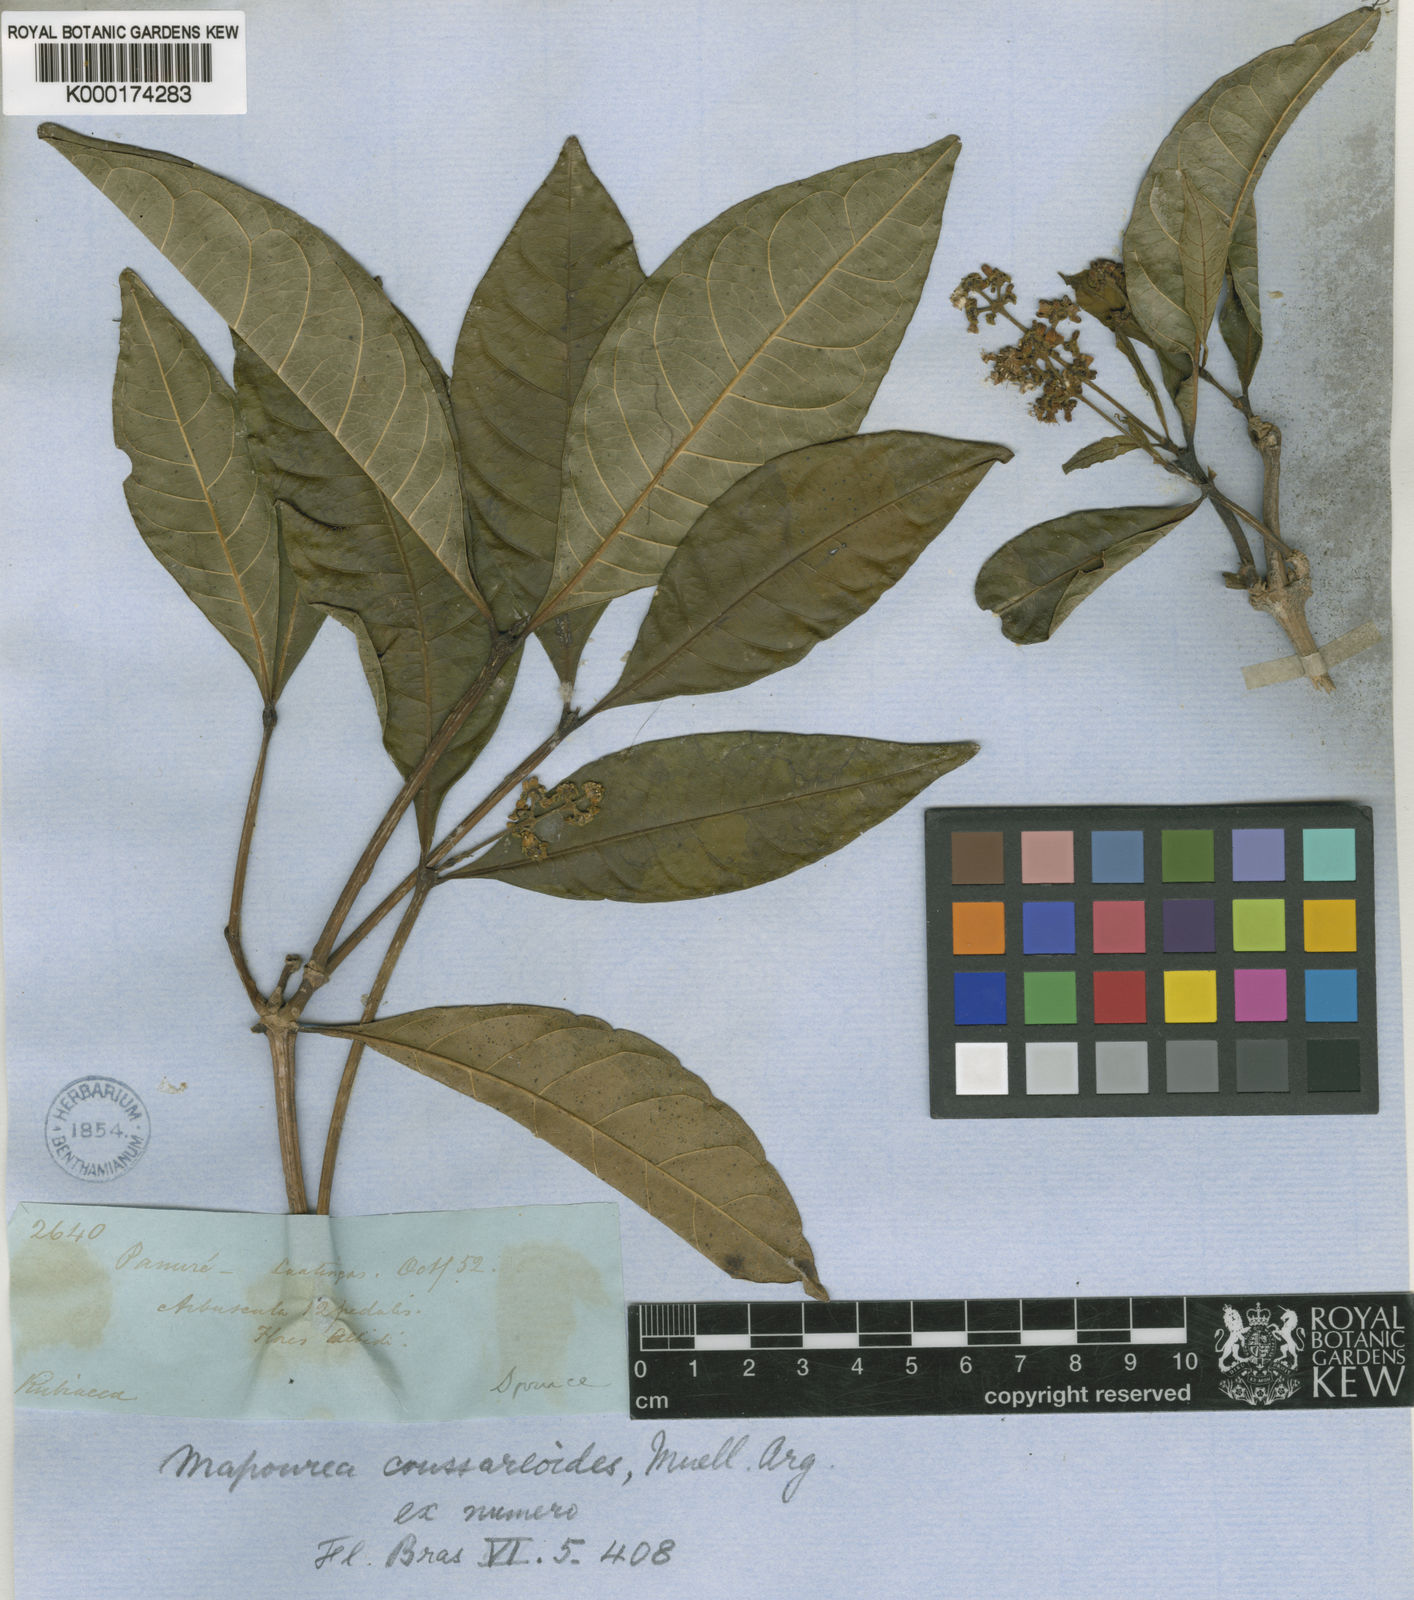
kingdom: Plantae
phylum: Tracheophyta
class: Magnoliopsida
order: Gentianales
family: Rubiaceae
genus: Psychotria
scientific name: Psychotria
